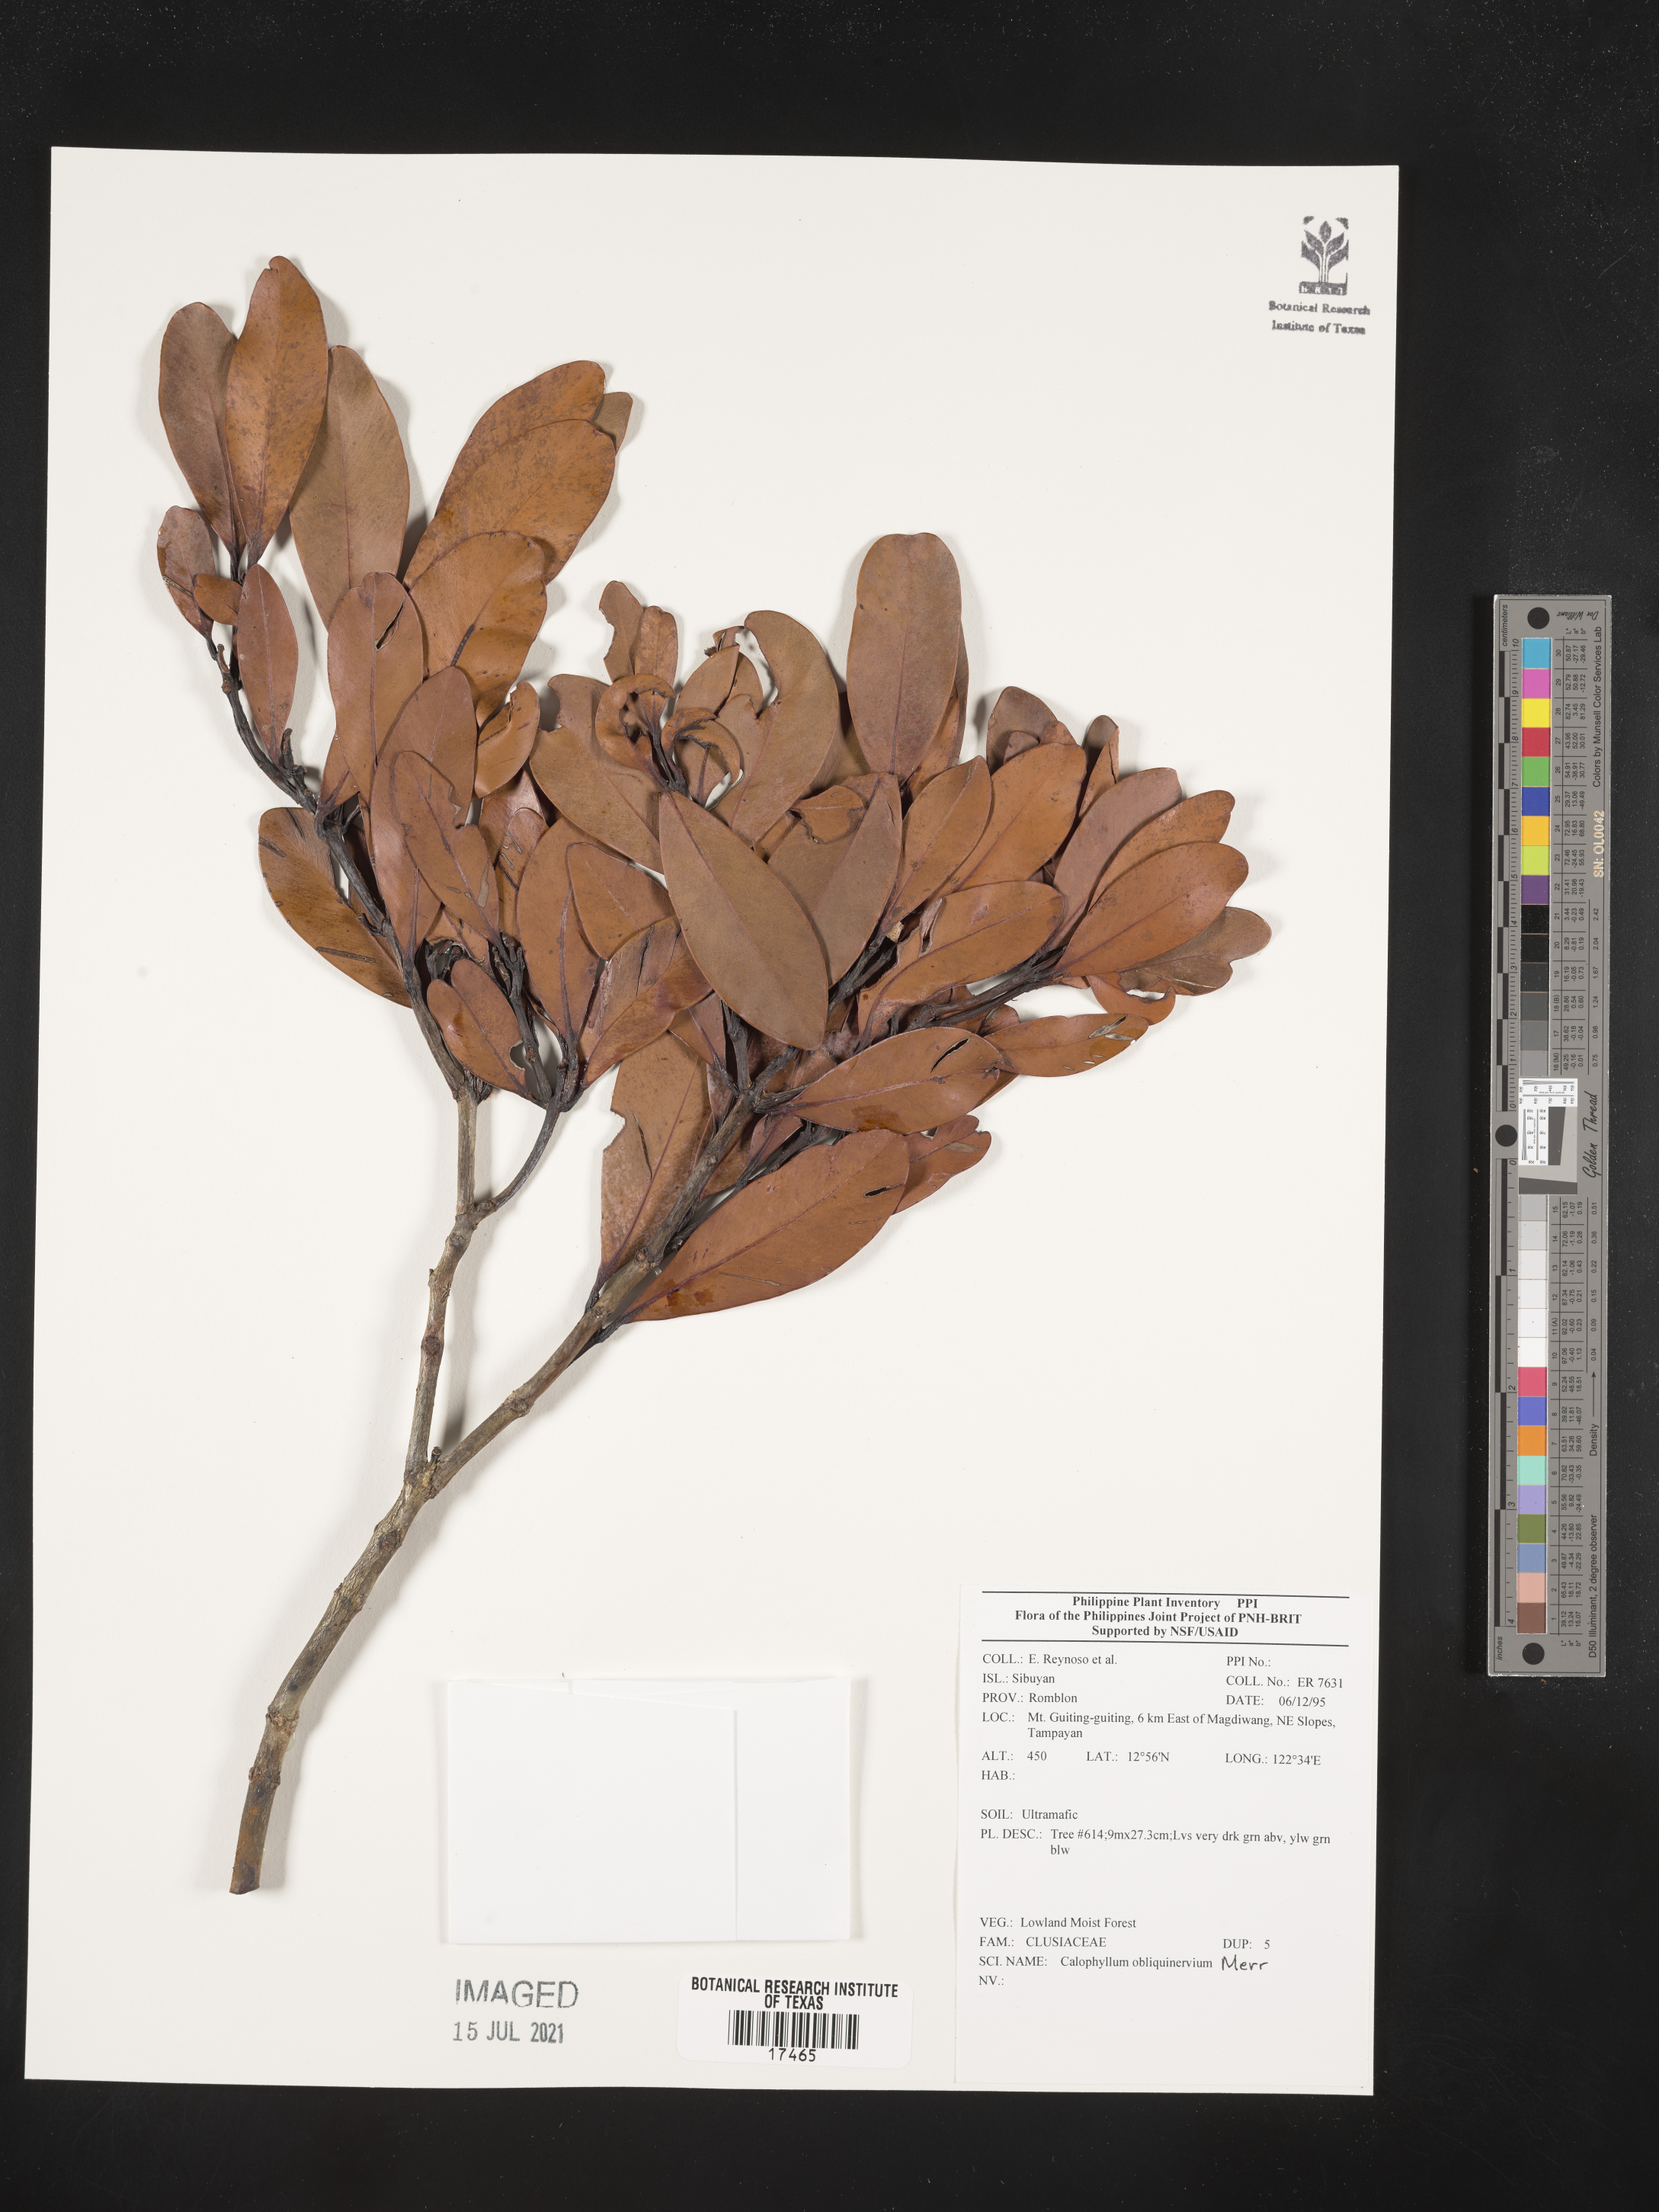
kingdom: Plantae
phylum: Tracheophyta
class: Magnoliopsida
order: Malpighiales
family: Calophyllaceae
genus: Calophyllum
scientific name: Calophyllum obliquinervium
